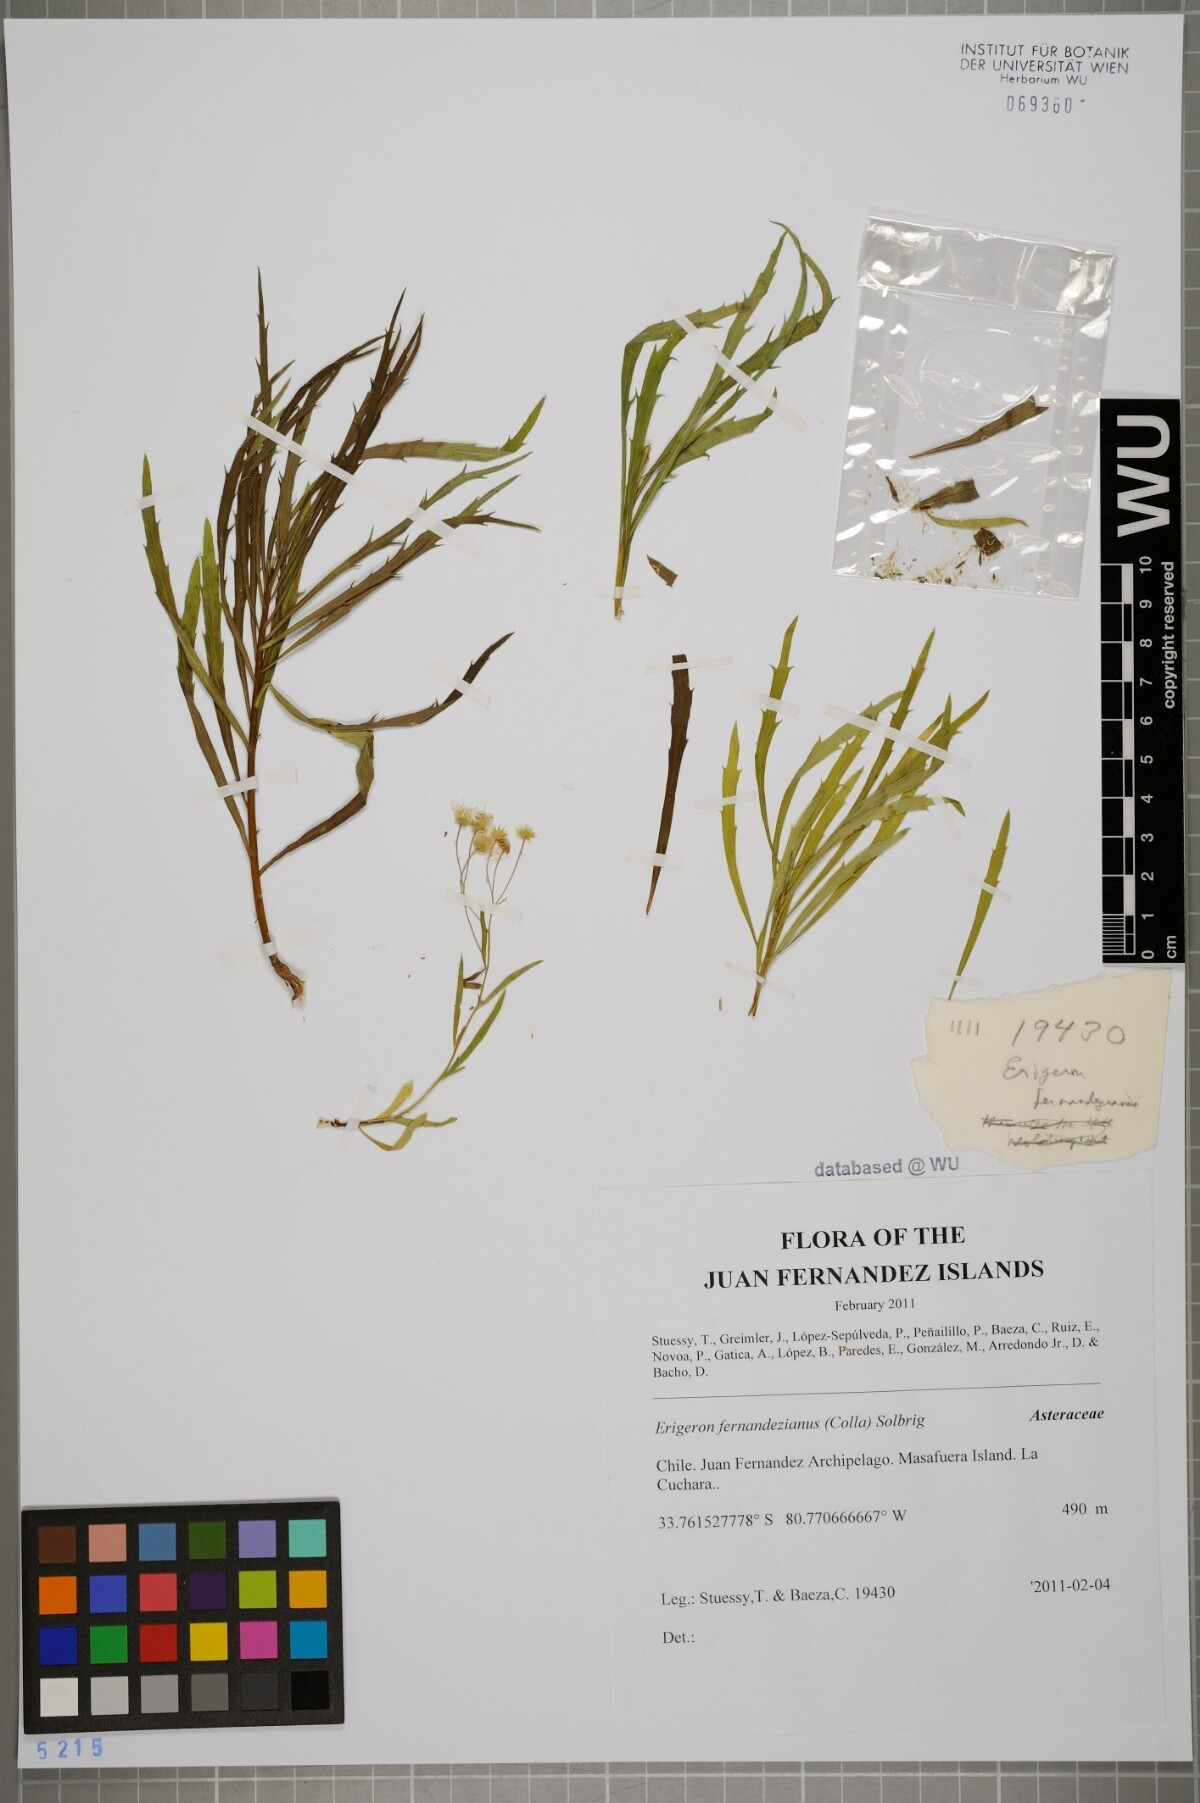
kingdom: Plantae
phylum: Tracheophyta
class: Magnoliopsida
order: Asterales
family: Asteraceae
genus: Erigeron
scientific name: Erigeron fernandezianus
